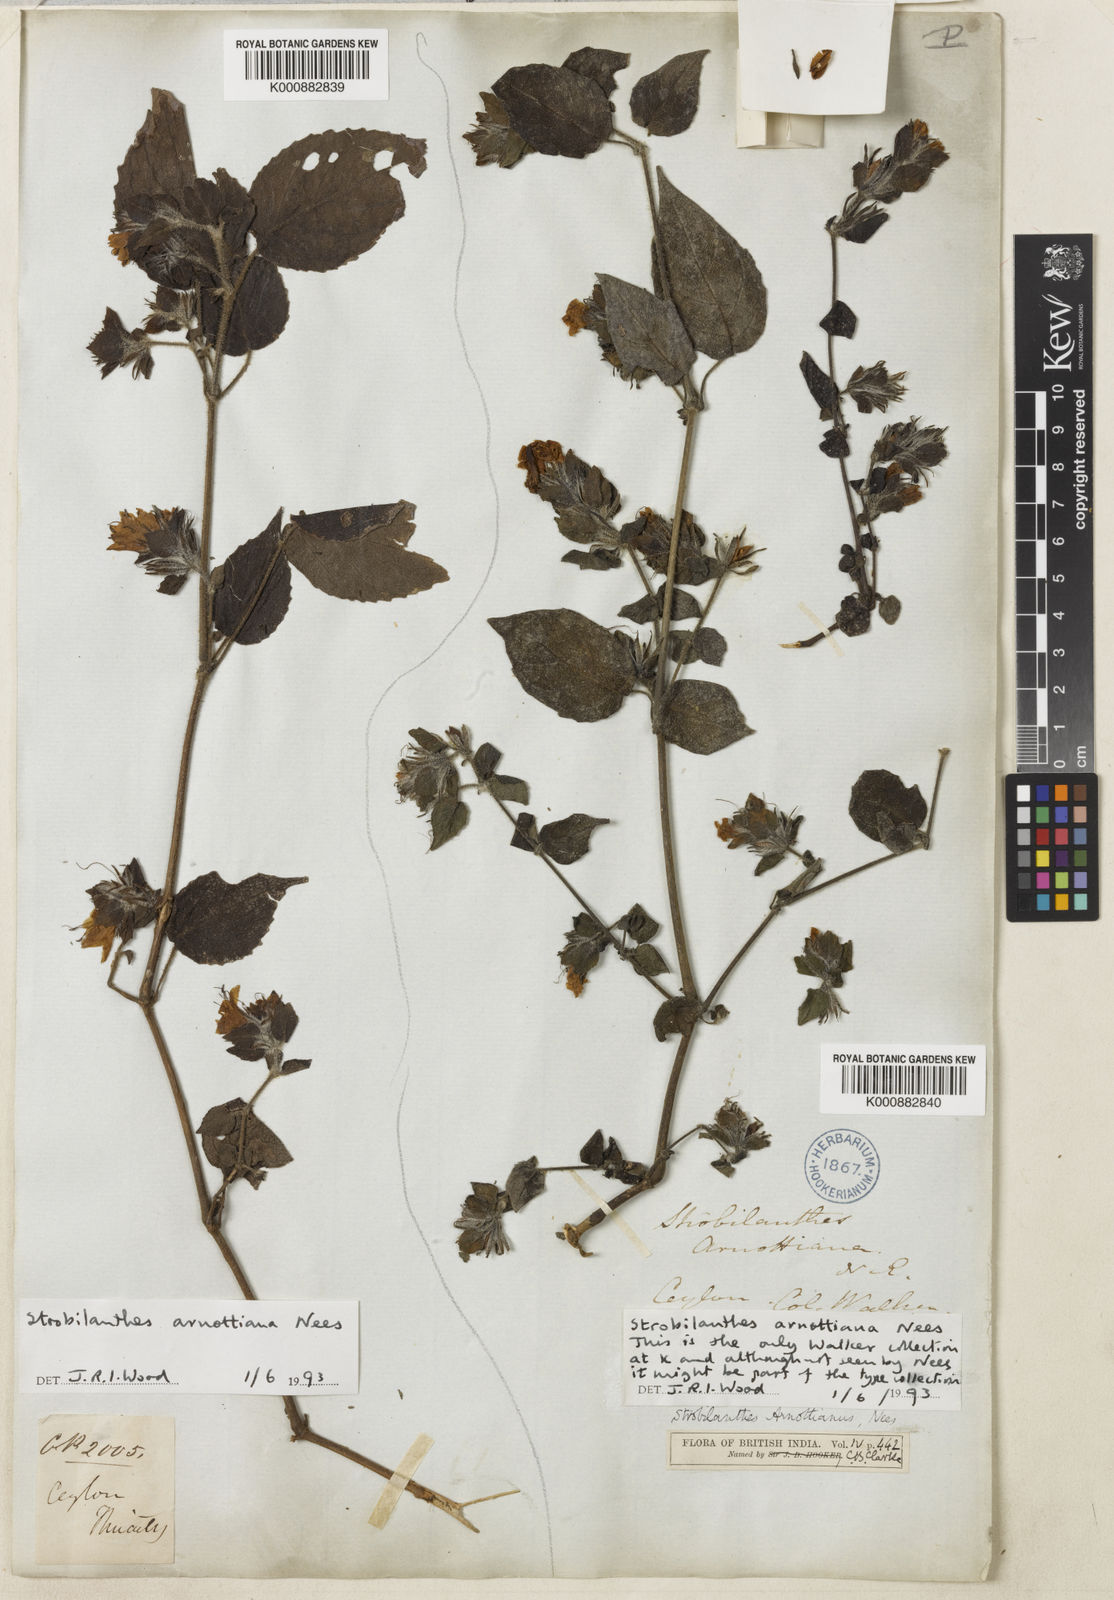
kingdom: Plantae
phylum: Tracheophyta
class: Magnoliopsida
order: Lamiales
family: Acanthaceae
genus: Strobilanthes
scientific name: Strobilanthes arnottiana
